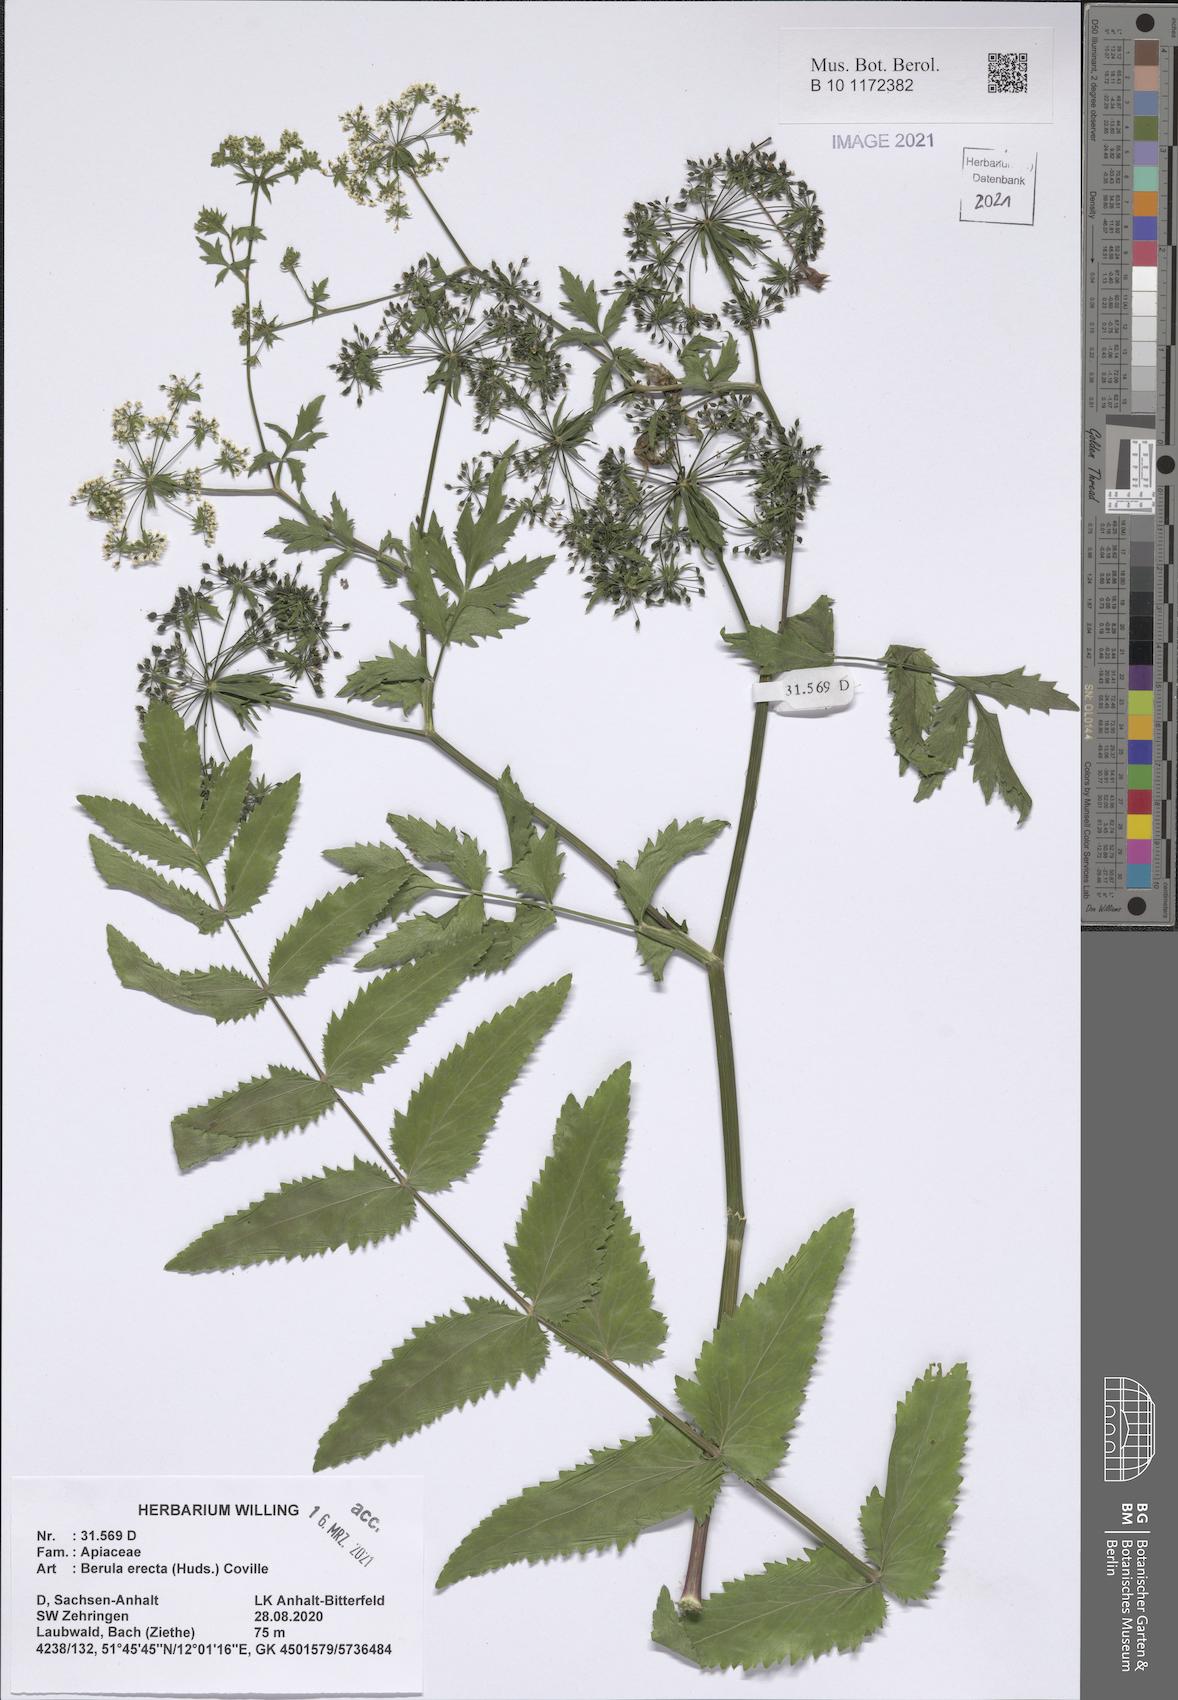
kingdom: Plantae
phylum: Tracheophyta
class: Magnoliopsida
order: Apiales
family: Apiaceae
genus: Berula
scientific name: Berula erecta
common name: Lesser water-parsnip
